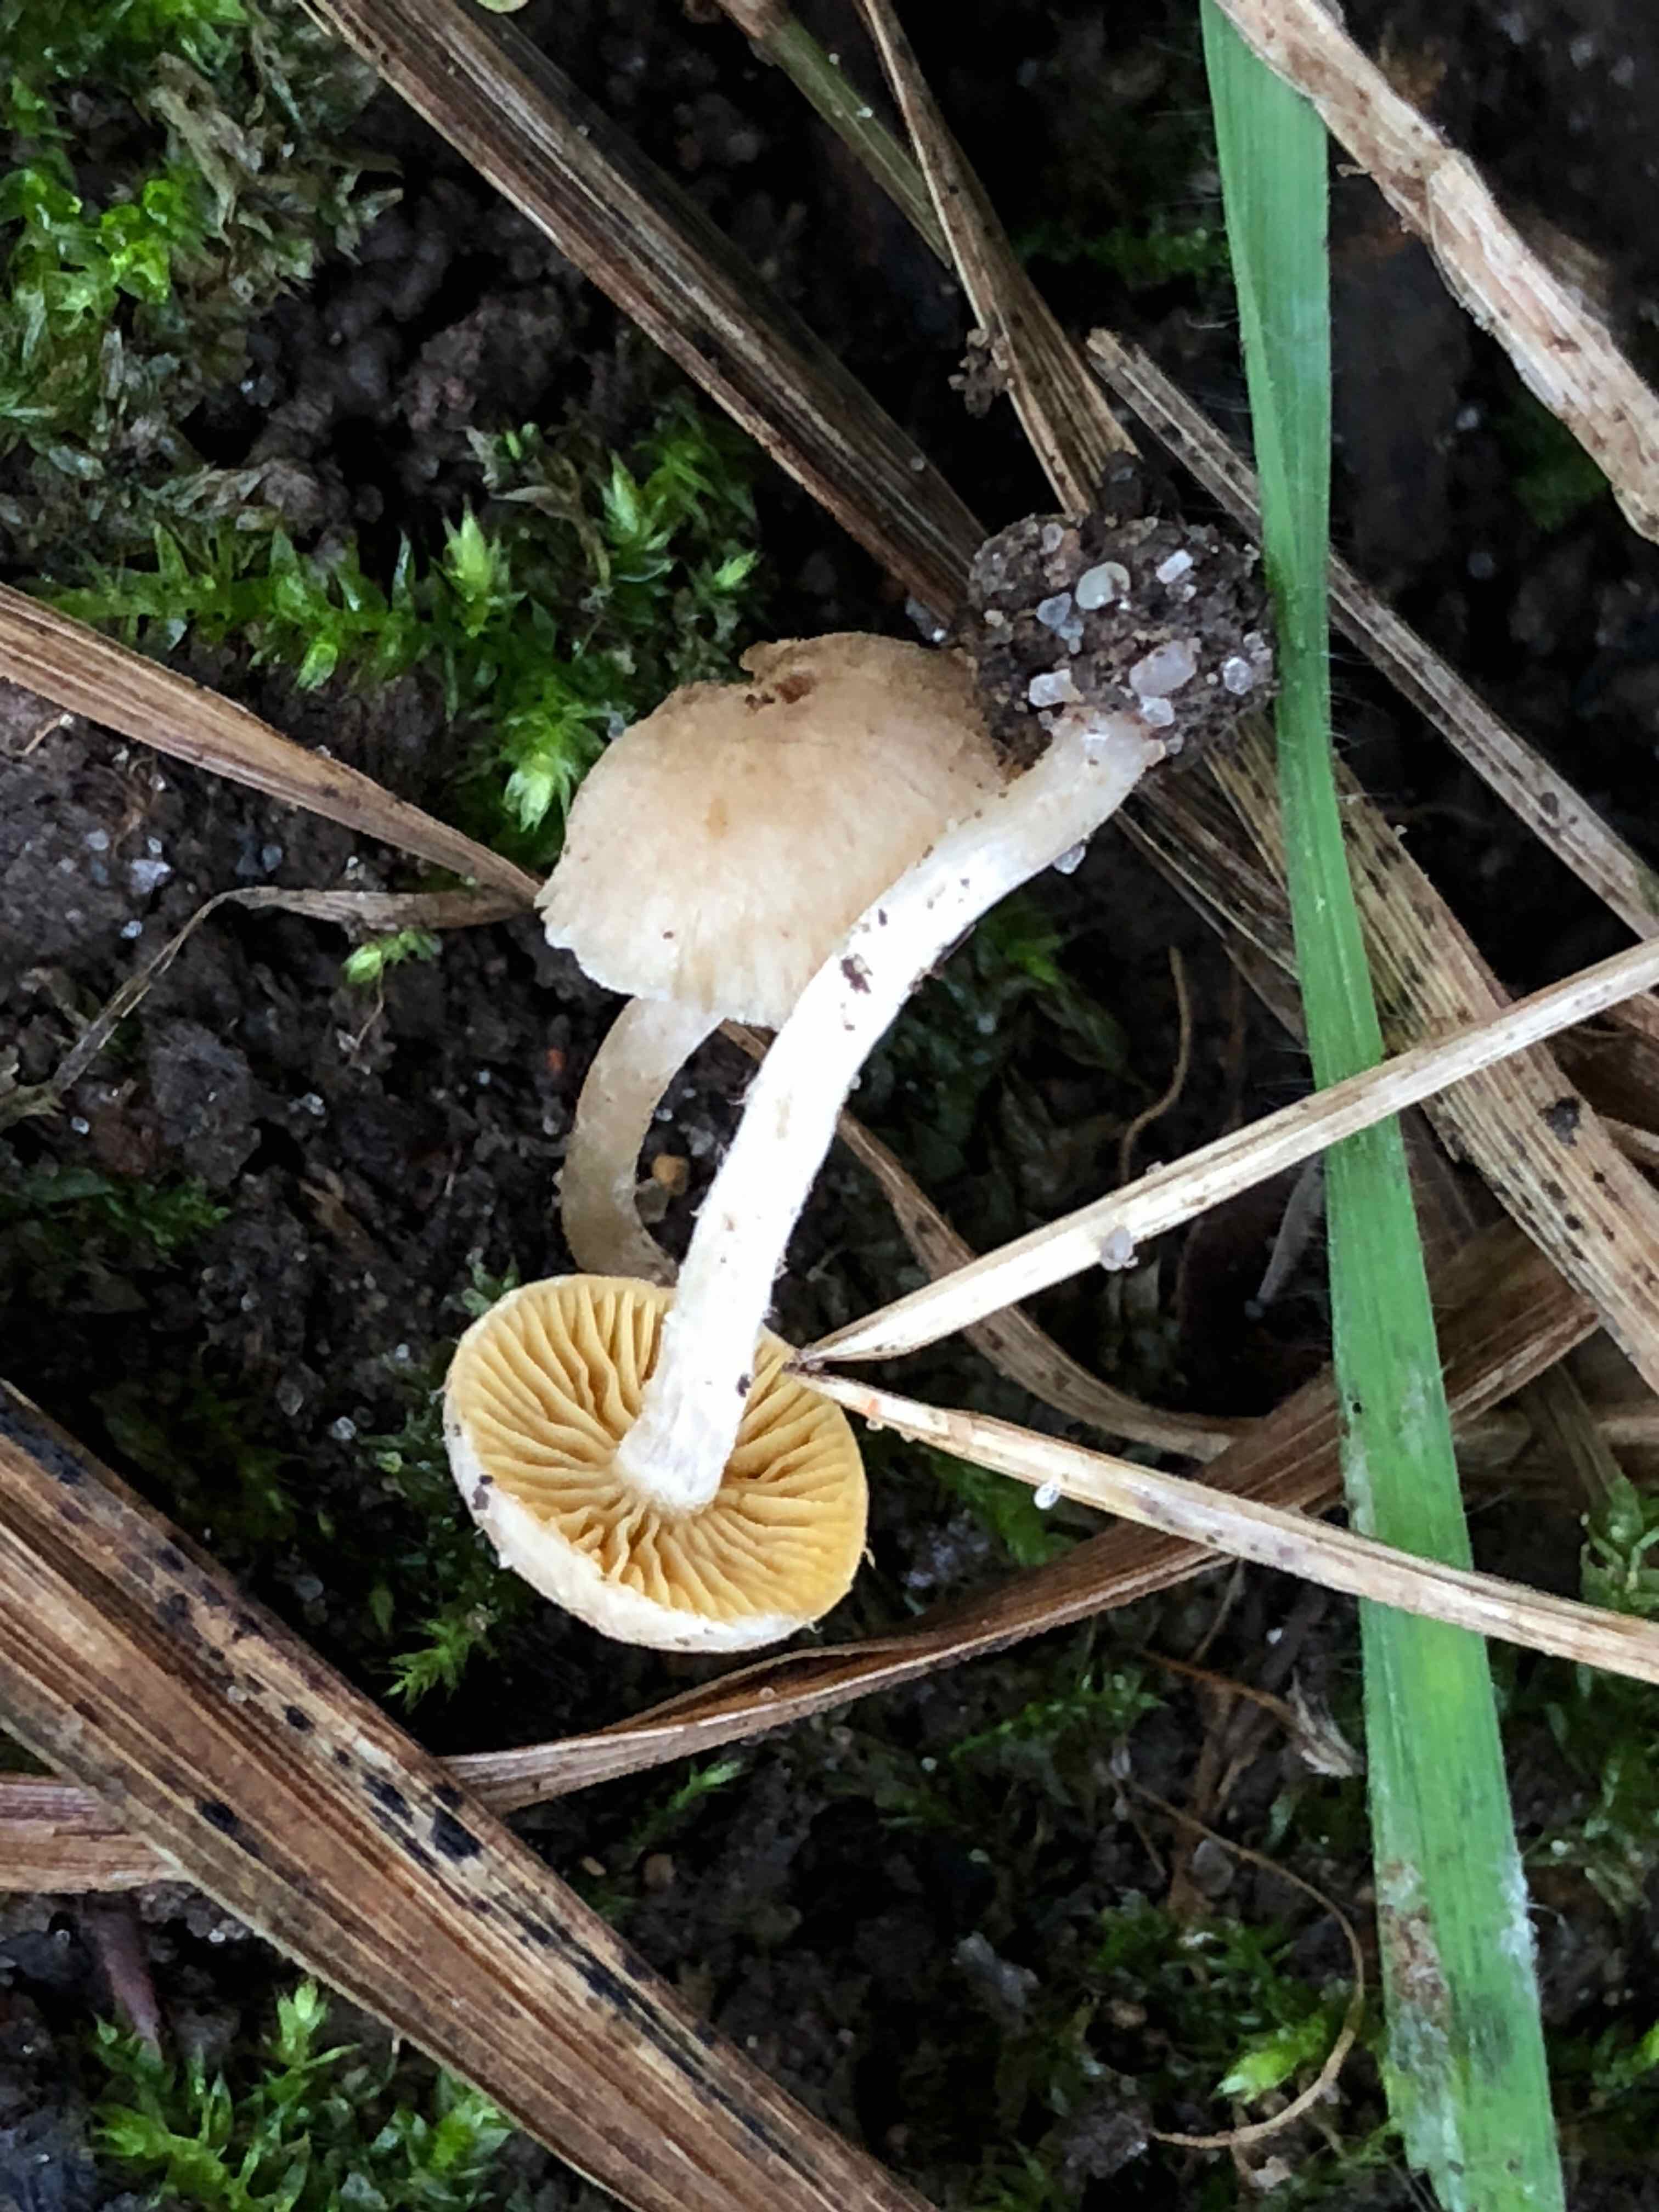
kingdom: Fungi
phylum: Basidiomycota
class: Agaricomycetes
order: Agaricales
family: Tubariaceae
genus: Tubaria
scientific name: Tubaria dispersa
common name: tjørne-fnughat
